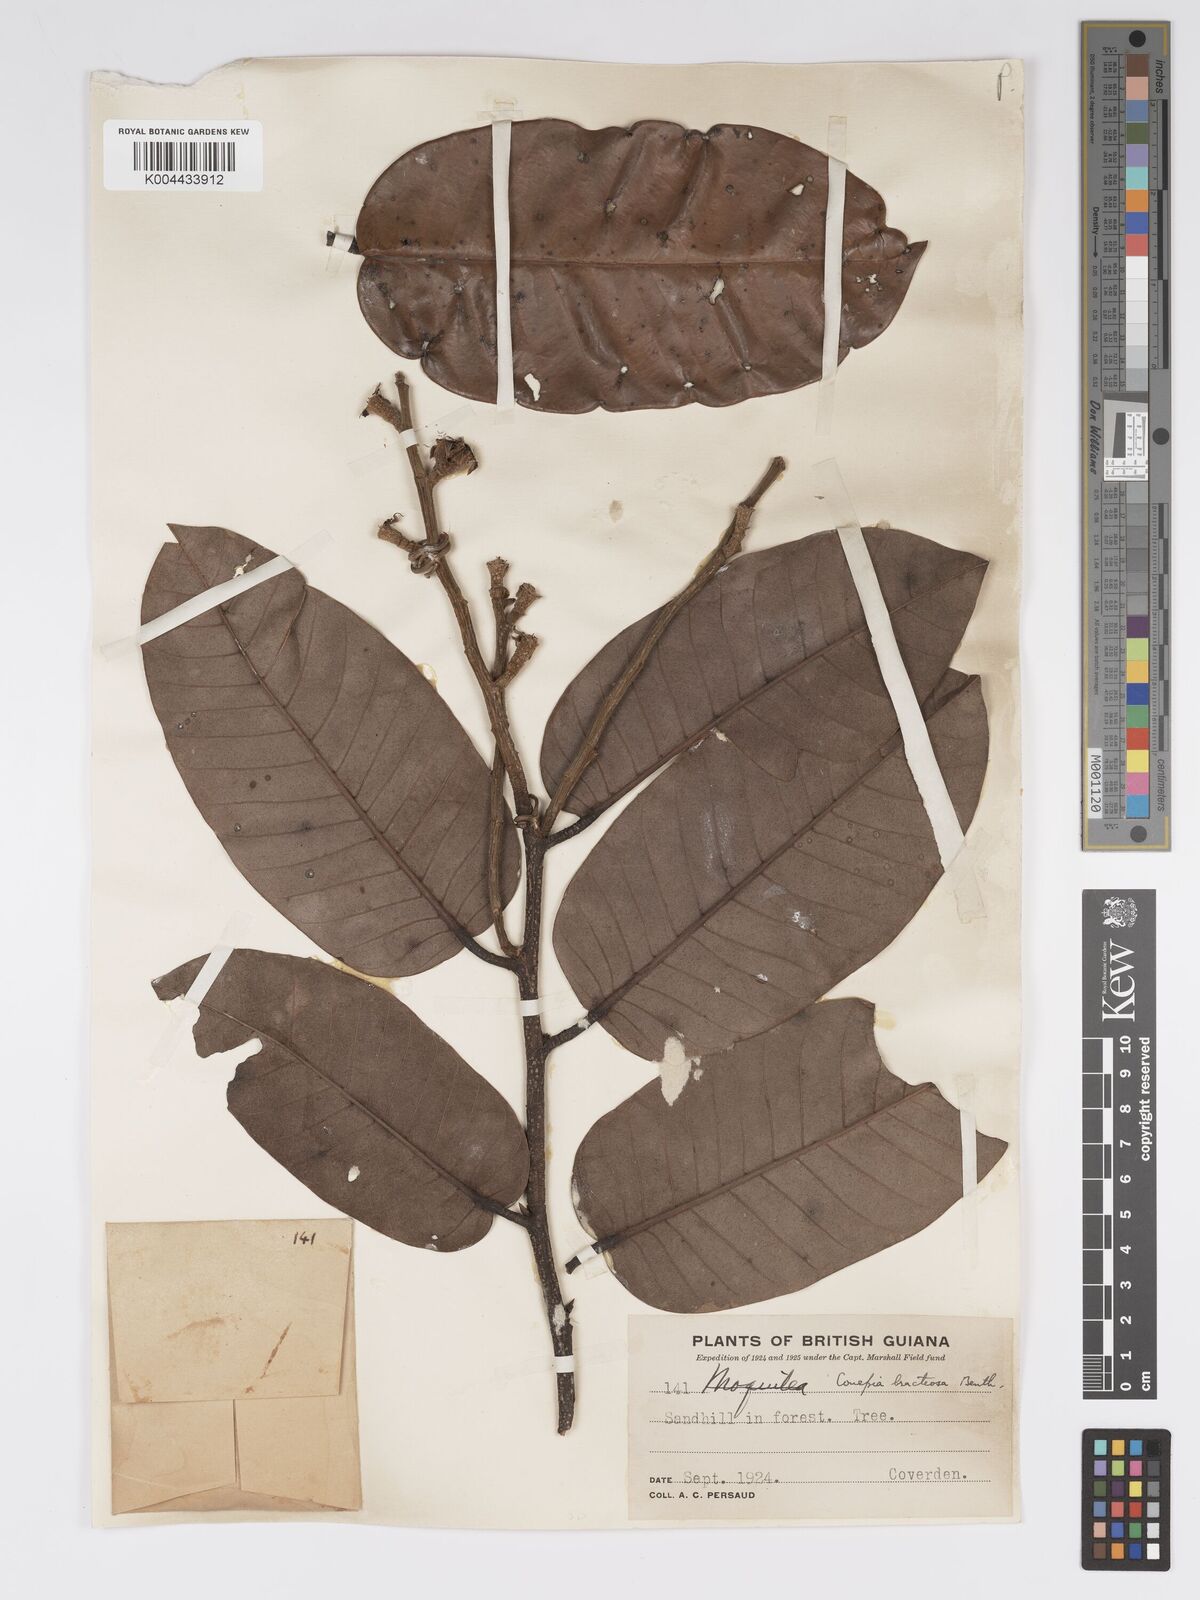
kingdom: Plantae
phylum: Tracheophyta
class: Magnoliopsida
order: Malpighiales
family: Chrysobalanaceae
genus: Couepia
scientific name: Couepia bracteosa
